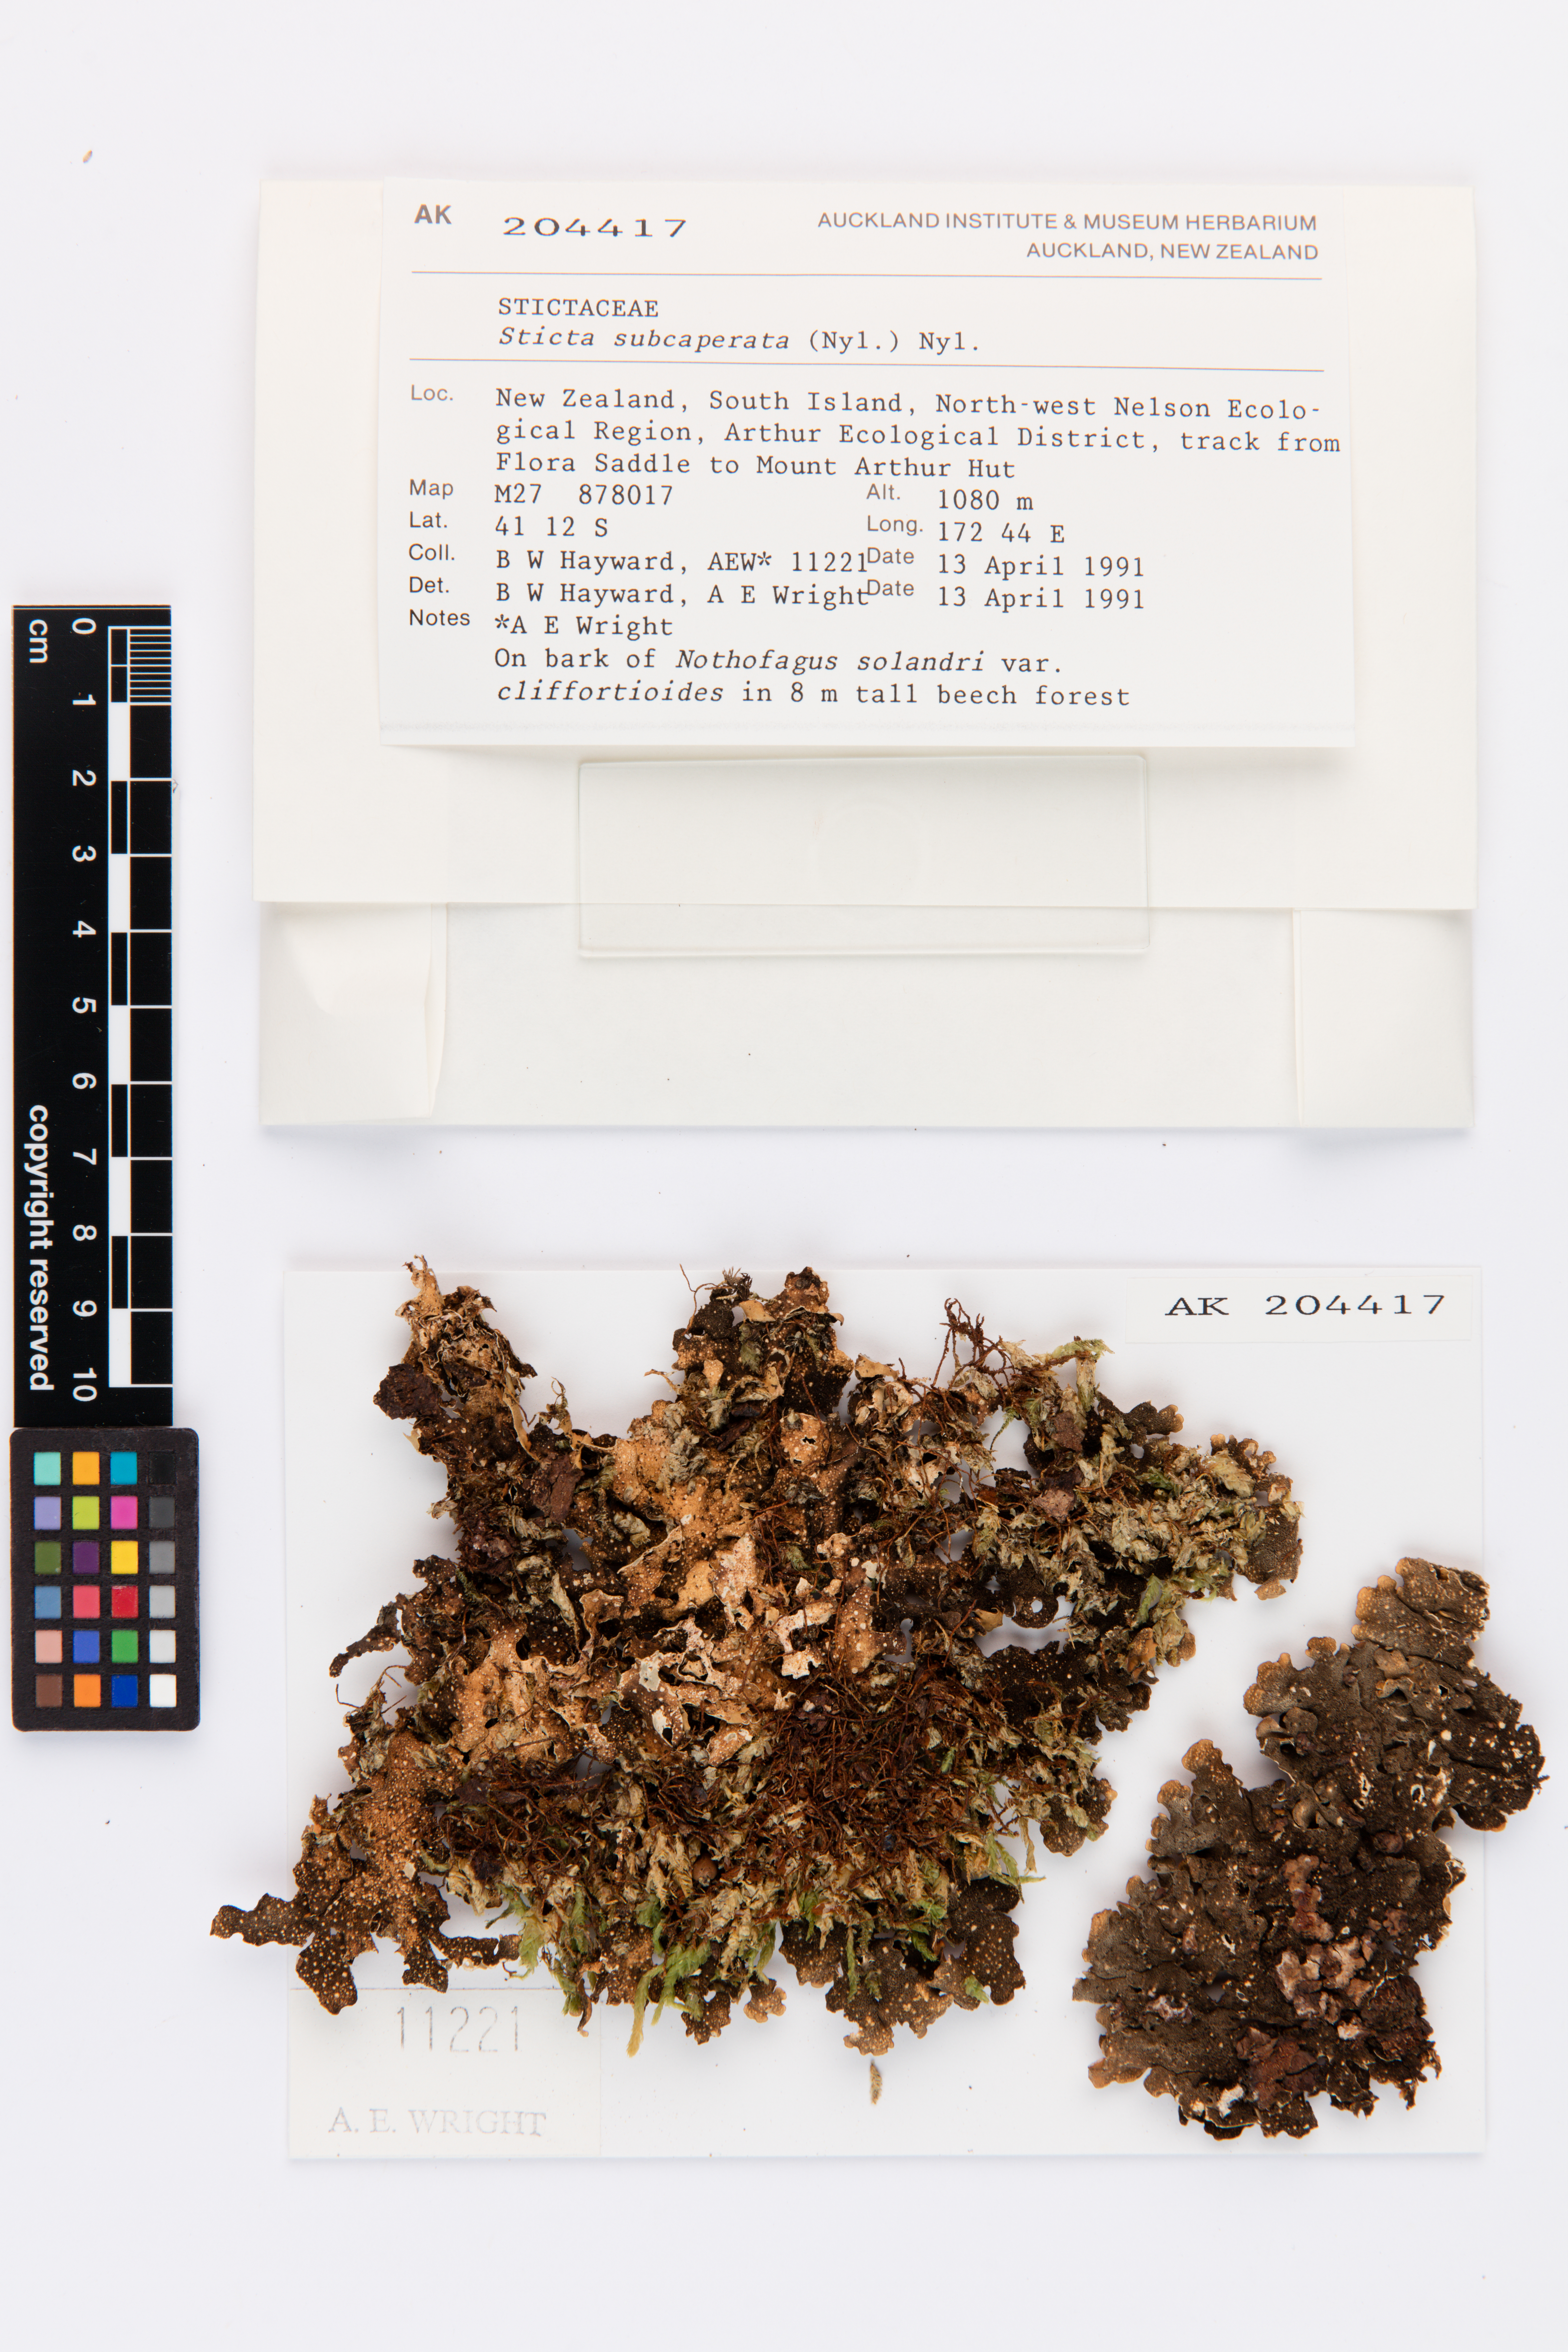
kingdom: Fungi
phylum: Ascomycota
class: Lecanoromycetes
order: Peltigerales
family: Lobariaceae
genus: Sticta
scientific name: Sticta subcaperata
